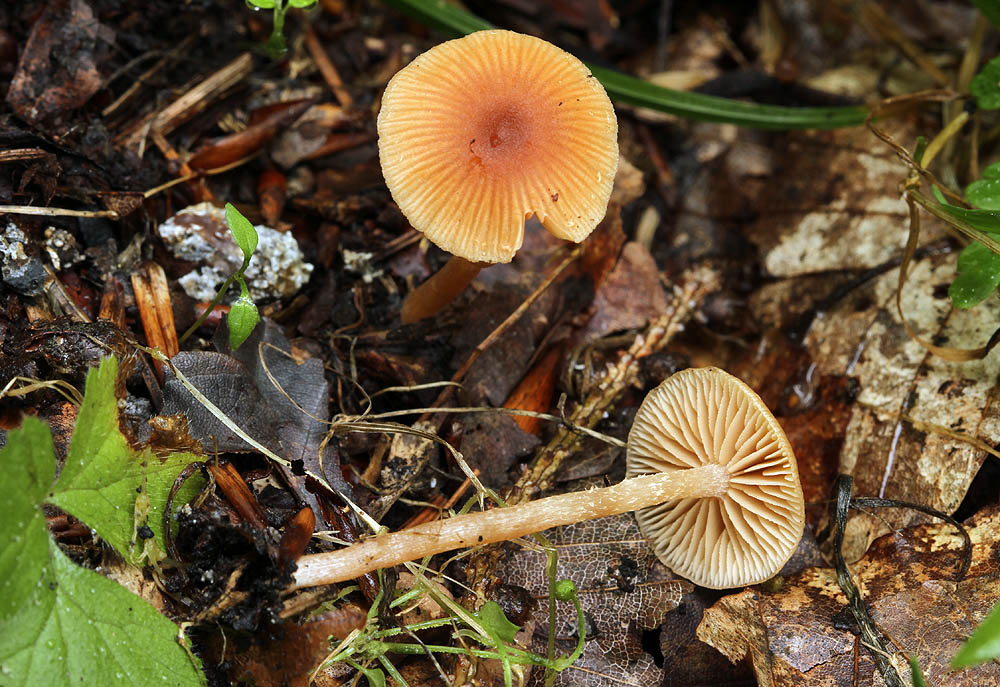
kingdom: Fungi
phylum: Basidiomycota
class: Agaricomycetes
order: Agaricales
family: Tubariaceae
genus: Flammulaster
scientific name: Flammulaster ferrugineus
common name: rustbrun grynskælhat
